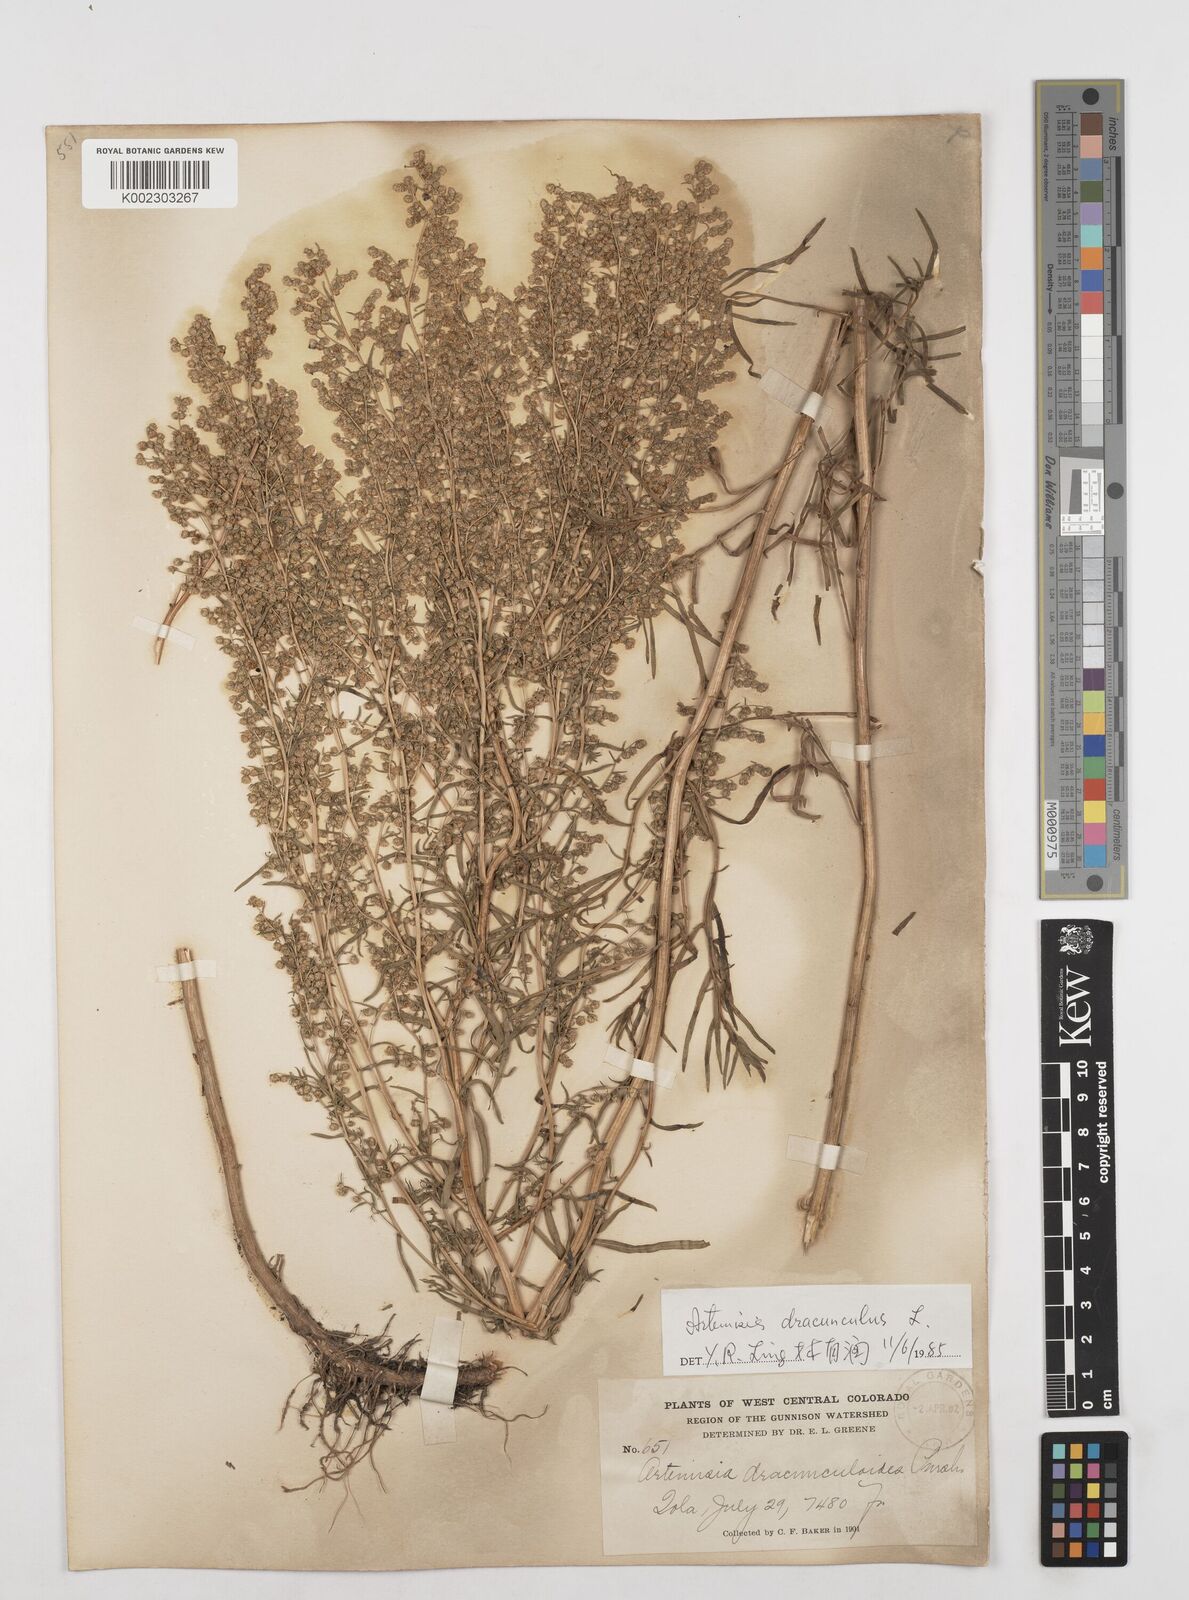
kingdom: Plantae
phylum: Tracheophyta
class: Magnoliopsida
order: Asterales
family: Asteraceae
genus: Artemisia
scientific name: Artemisia dracunculus
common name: Tarragon
